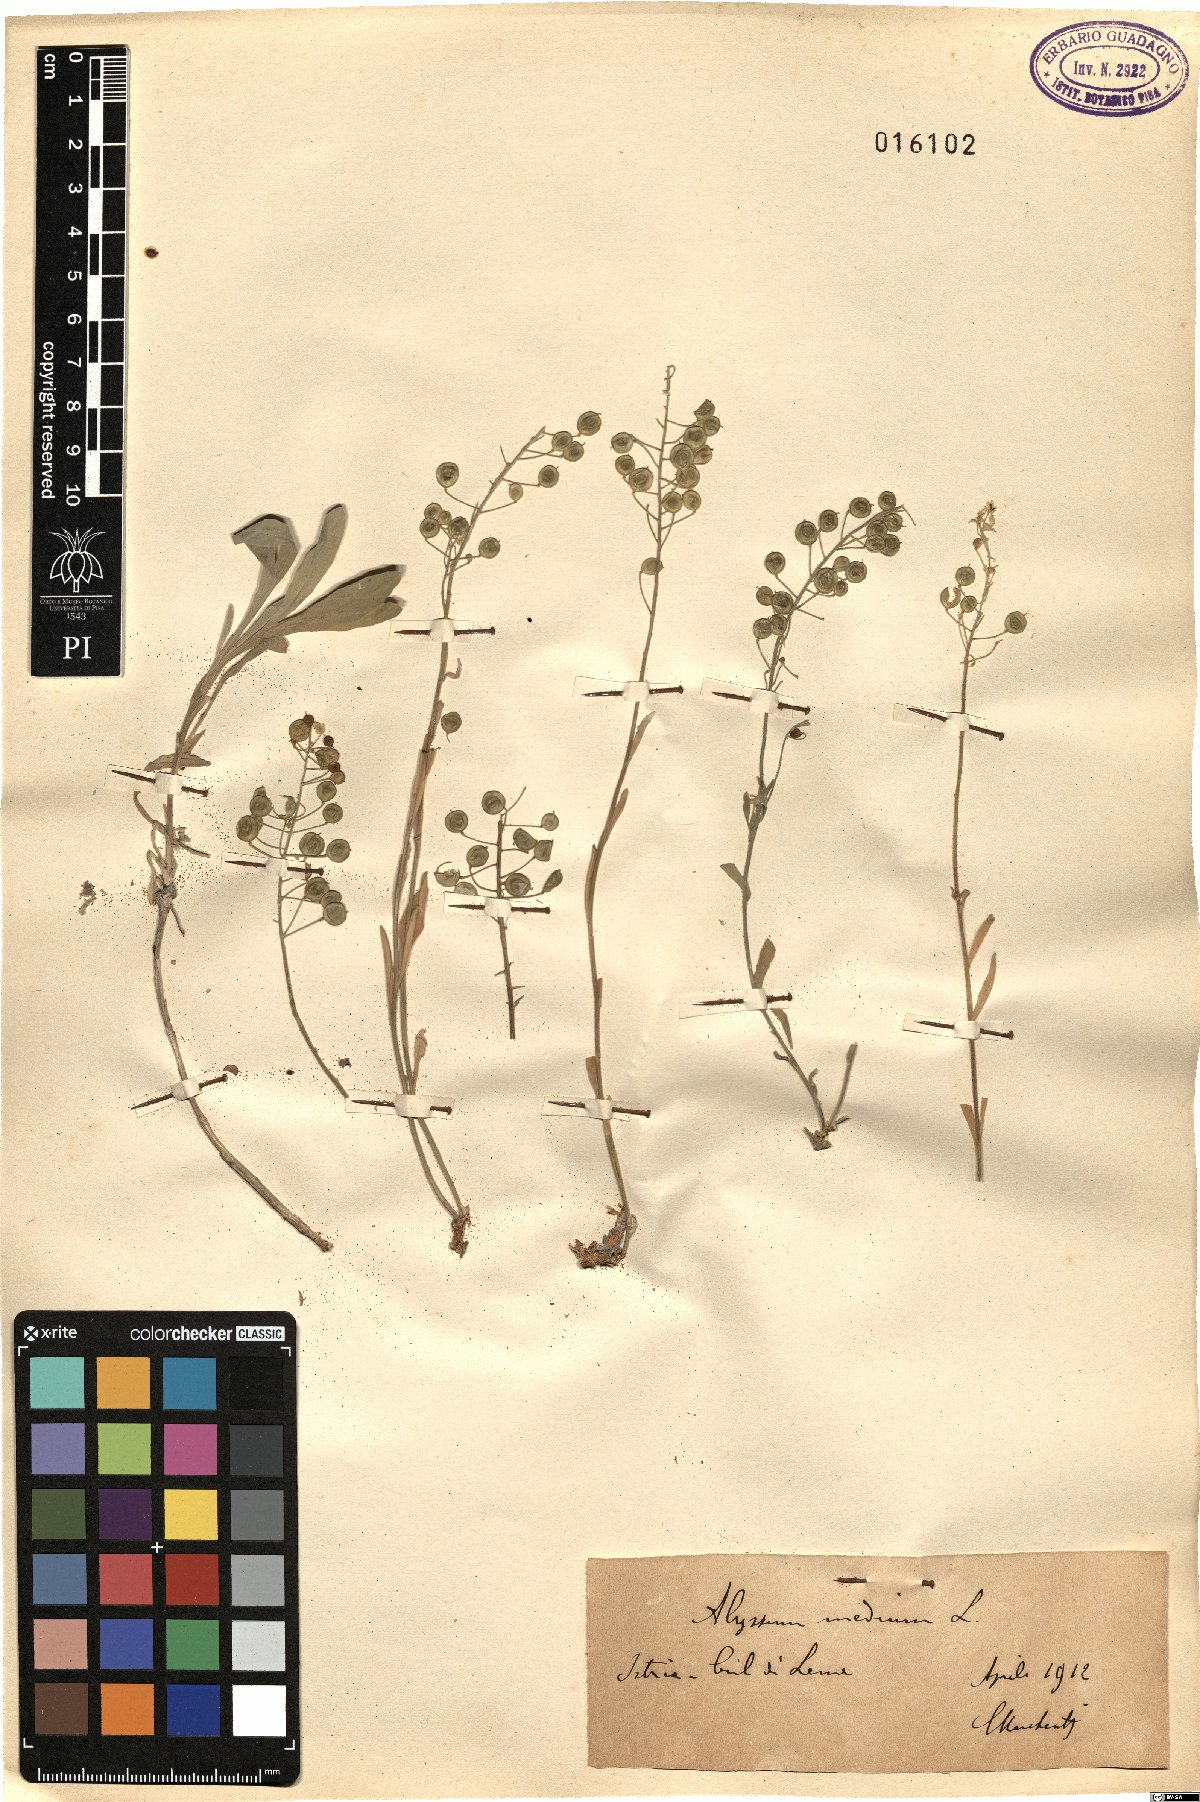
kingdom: Plantae
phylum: Tracheophyta
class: Magnoliopsida
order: Brassicales
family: Brassicaceae
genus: Aurinia
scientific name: Aurinia leucadea
